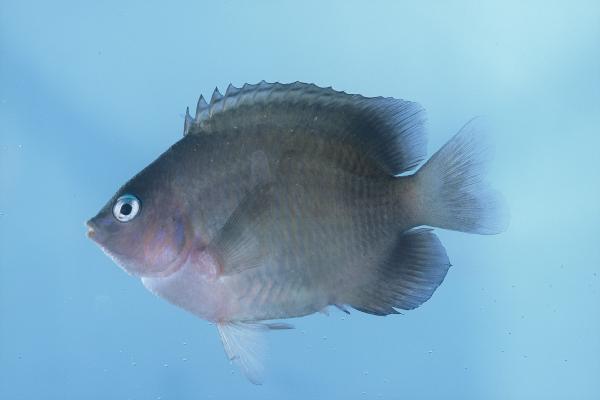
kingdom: Animalia
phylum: Chordata
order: Perciformes
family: Pomacentridae
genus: Plectroglyphidodon
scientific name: Plectroglyphidodon johnstonianus
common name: Johnston damsel
